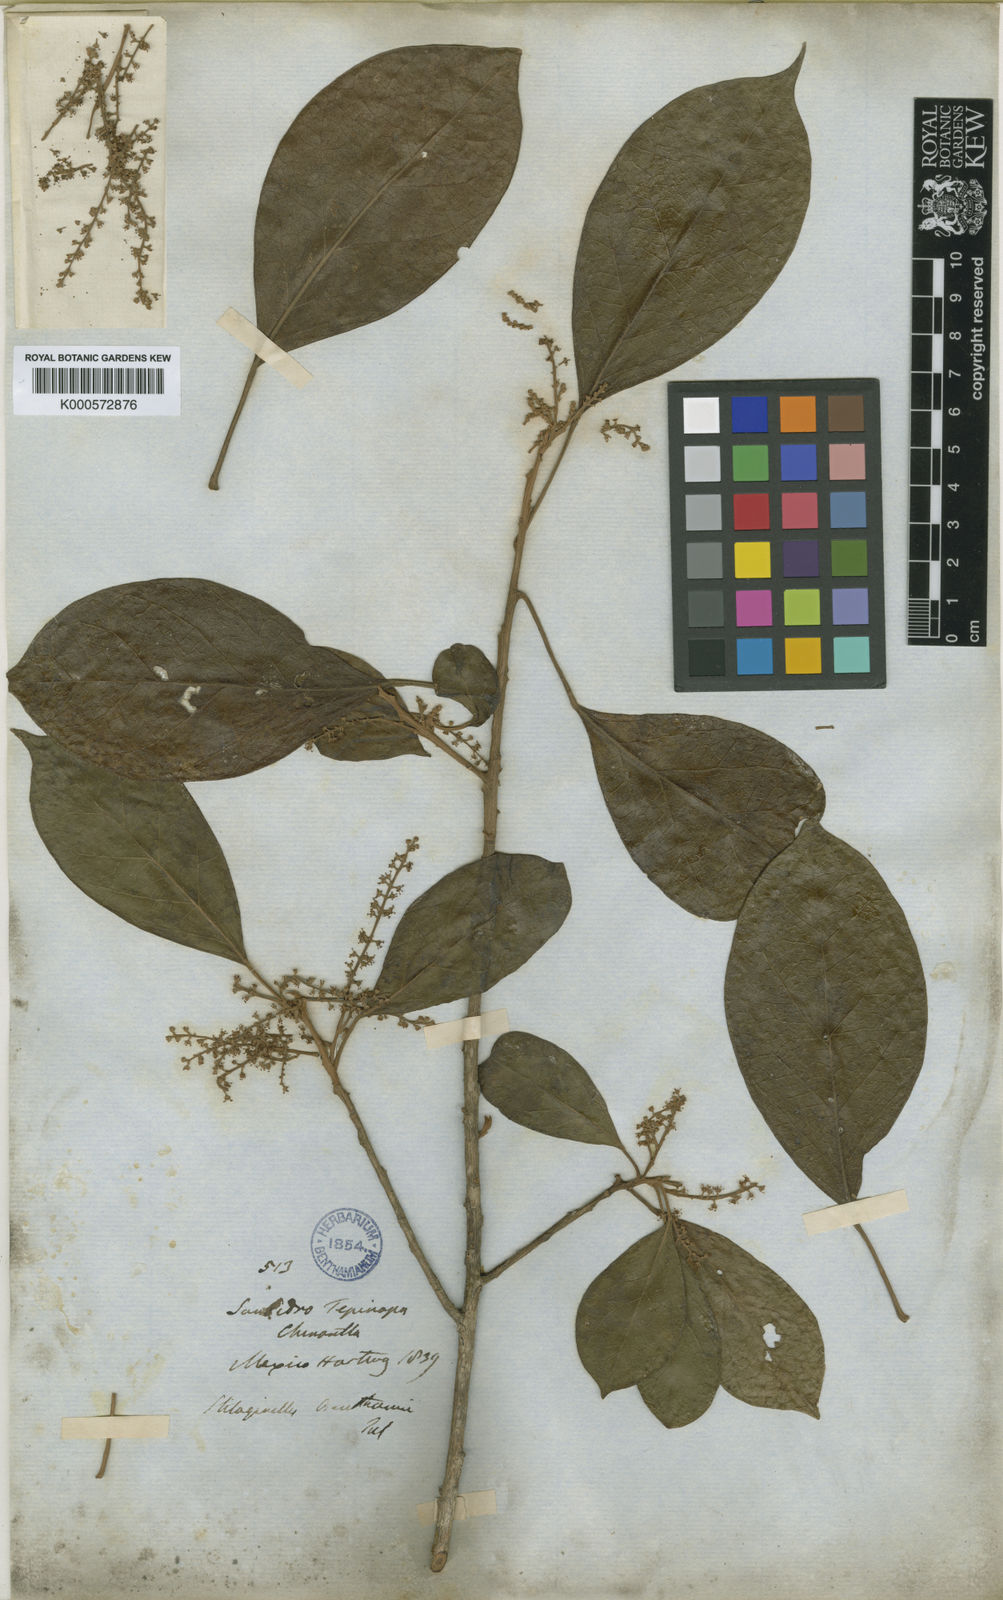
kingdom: Plantae
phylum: Tracheophyta
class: Magnoliopsida
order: Malpighiales
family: Phyllanthaceae
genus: Hieronyma
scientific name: Hieronyma
